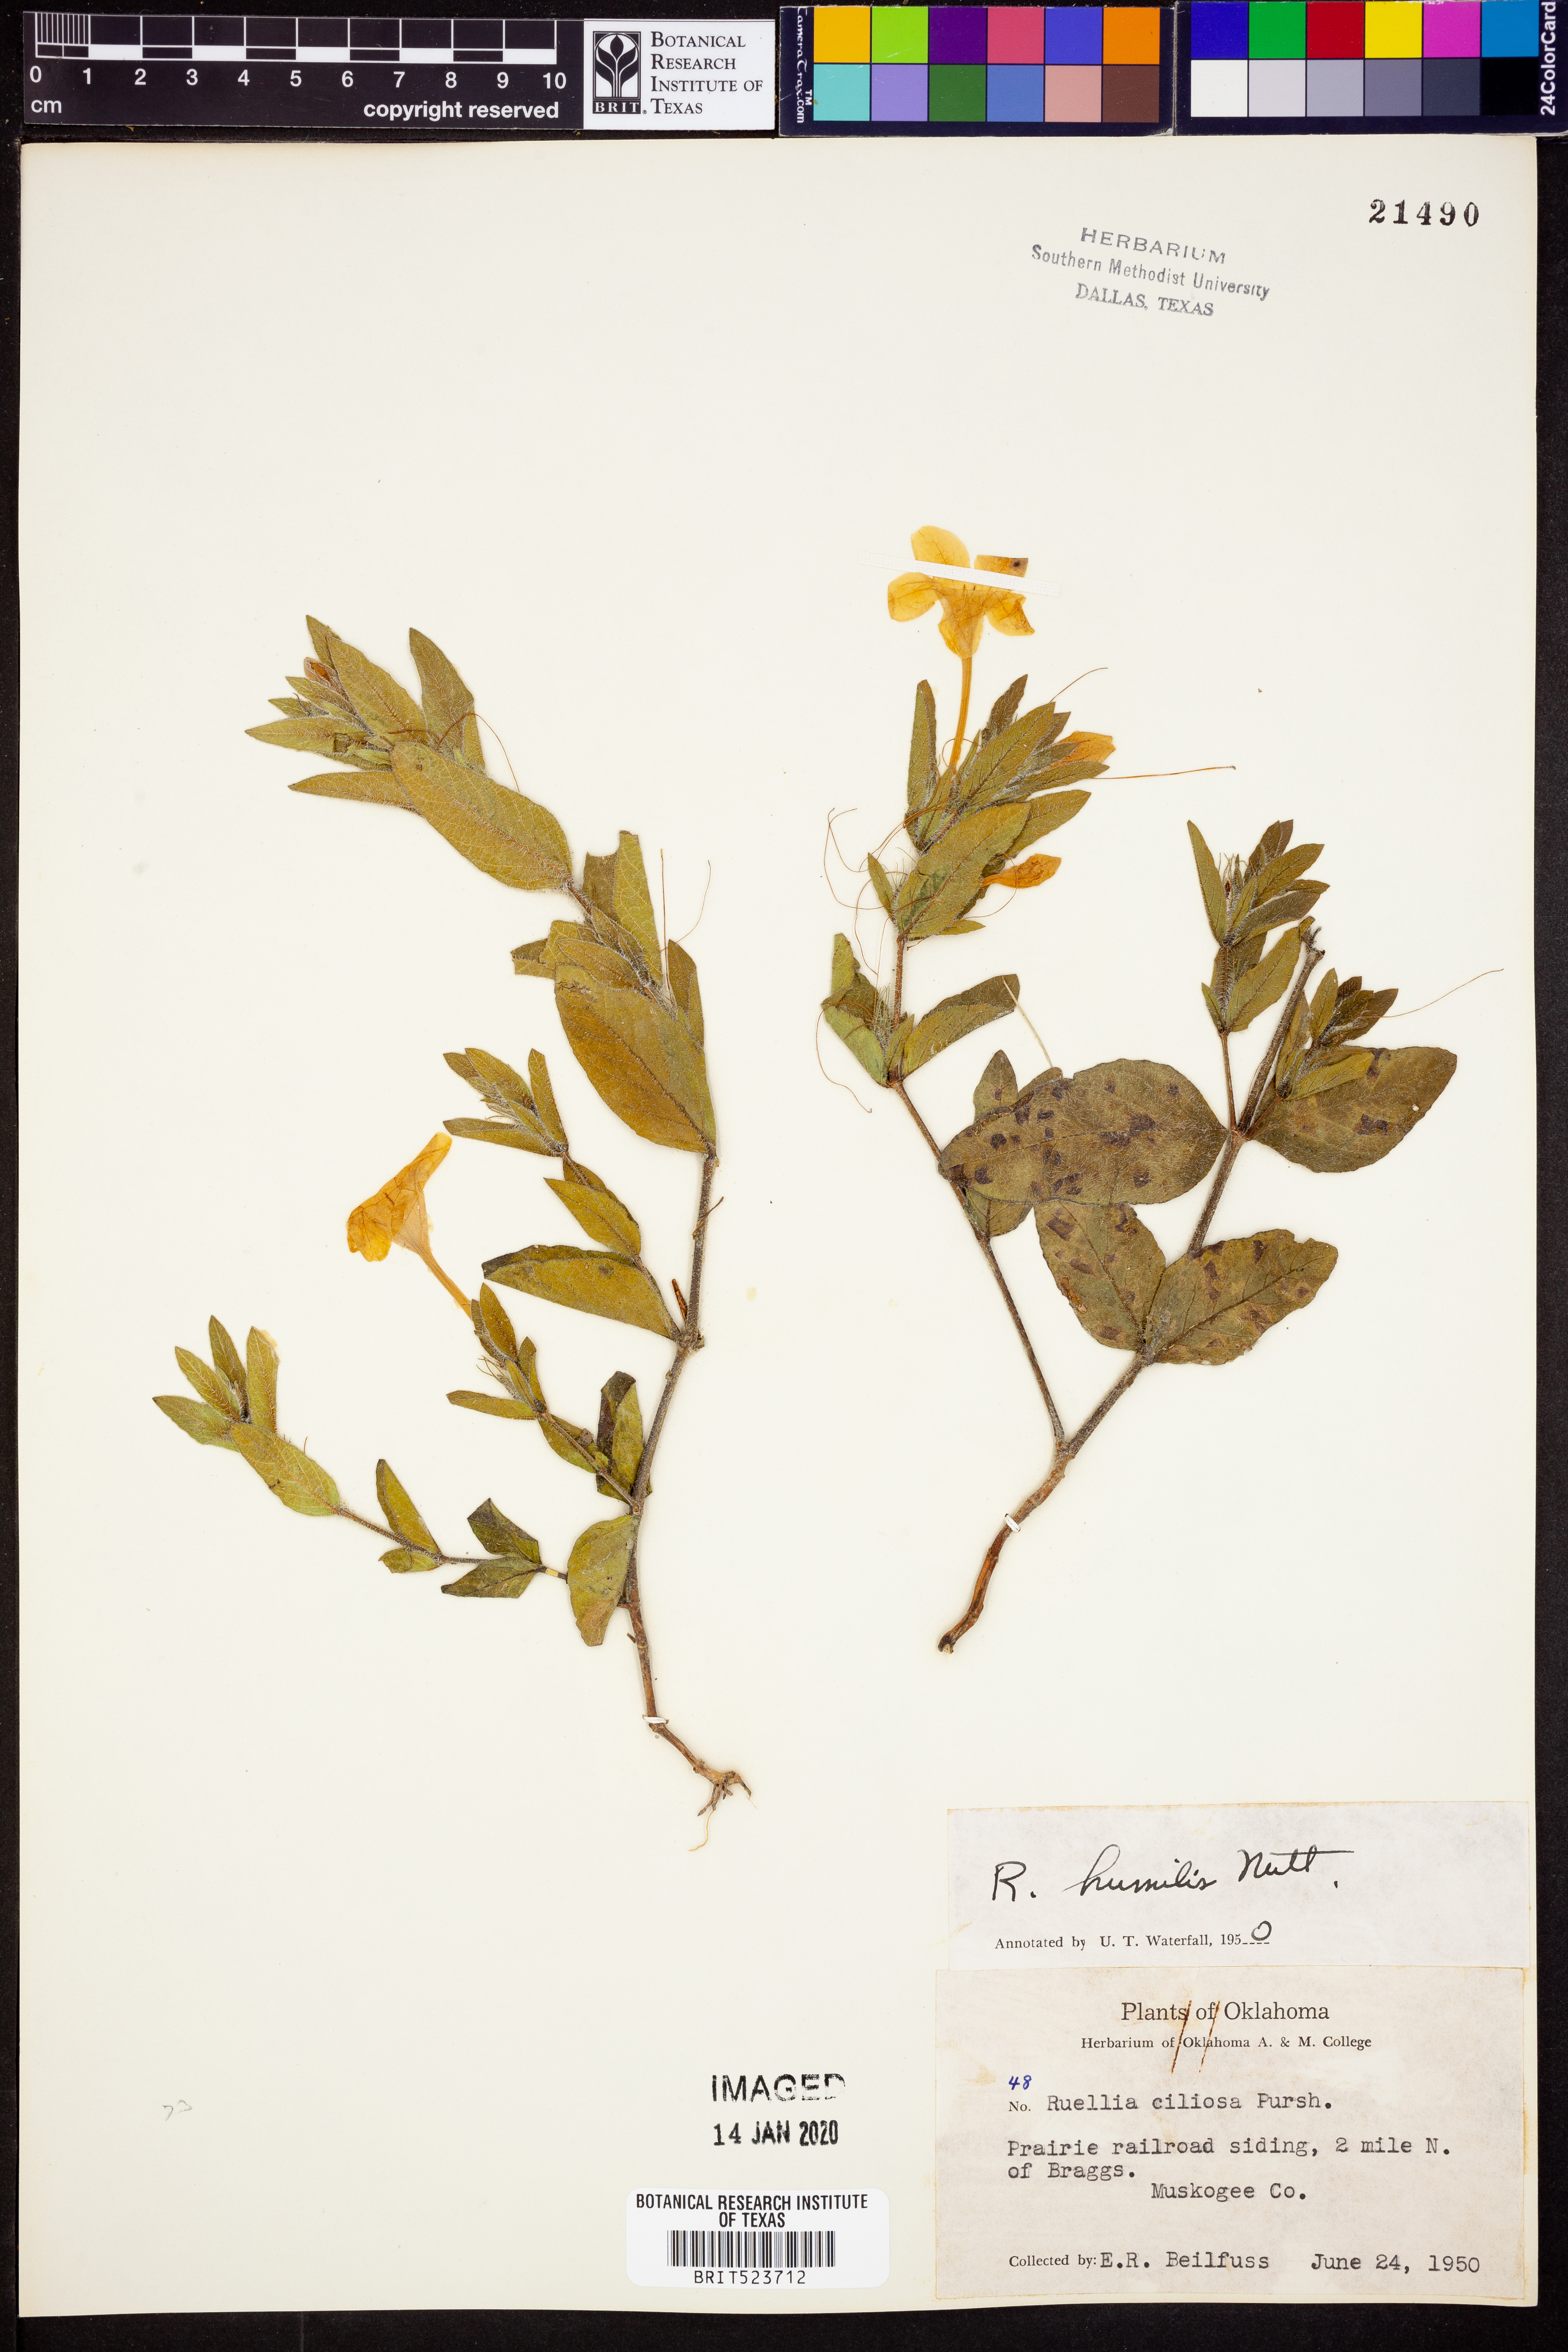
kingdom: Plantae
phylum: Tracheophyta
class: Magnoliopsida
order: Lamiales
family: Acanthaceae
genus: Ruellia
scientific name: Ruellia humilis
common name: Fringe-leaf ruellia
